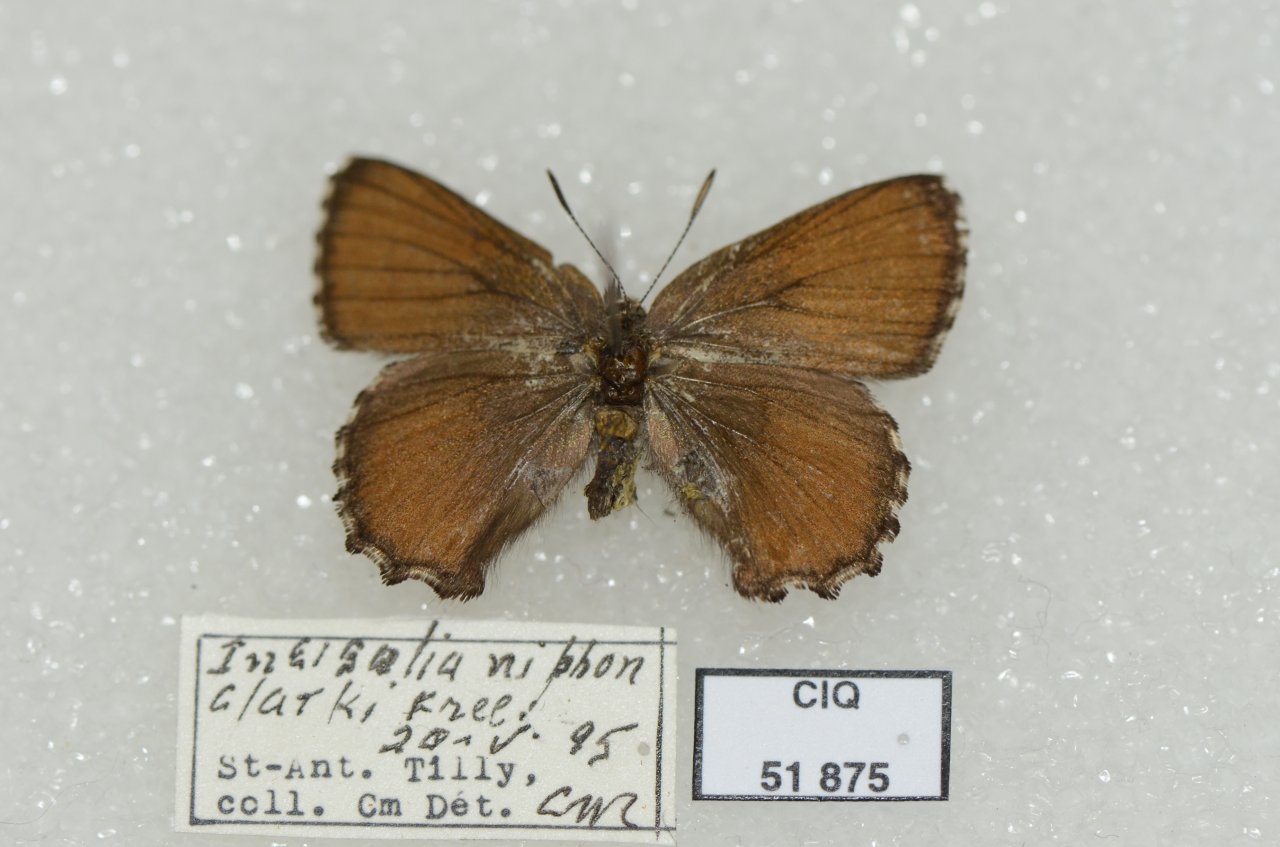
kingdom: Animalia
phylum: Arthropoda
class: Insecta
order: Lepidoptera
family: Lycaenidae
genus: Incisalia
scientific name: Incisalia niphon
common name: Eastern Pine Elfin
